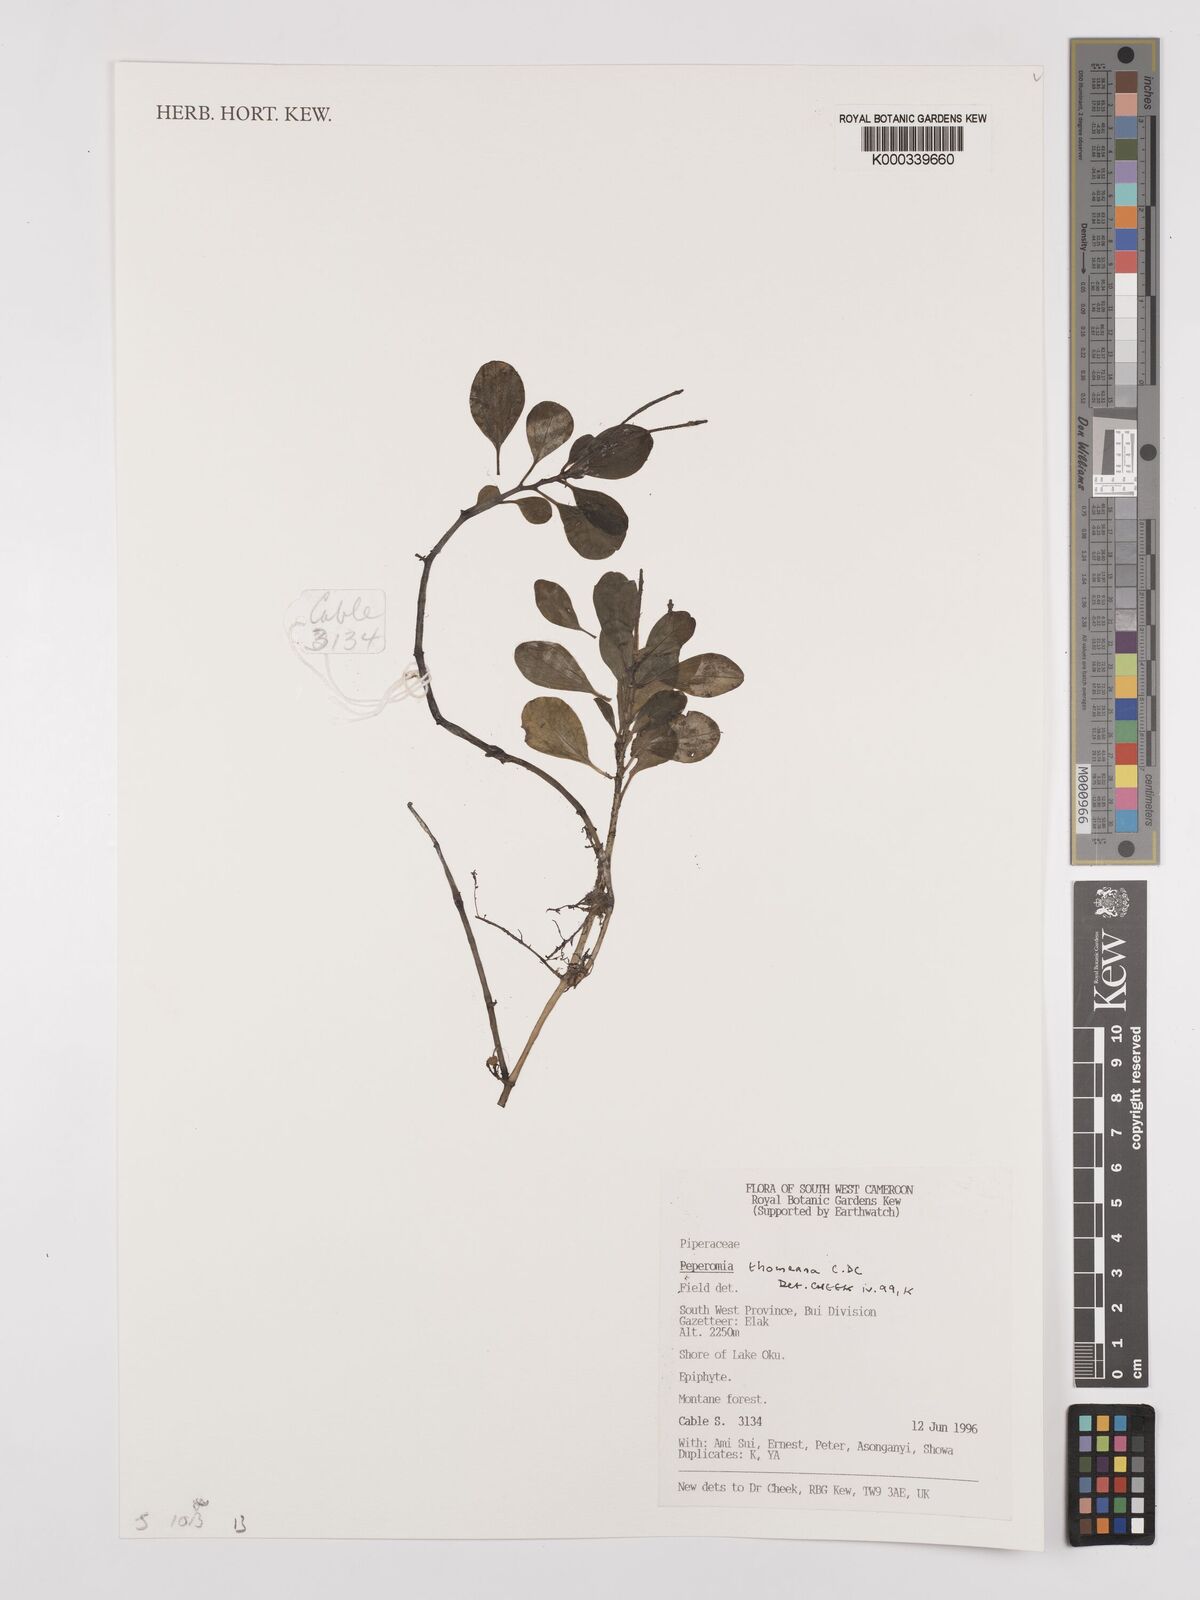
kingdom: Plantae
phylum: Tracheophyta
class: Magnoliopsida
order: Piperales
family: Piperaceae
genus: Peperomia
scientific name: Peperomia thomeana
